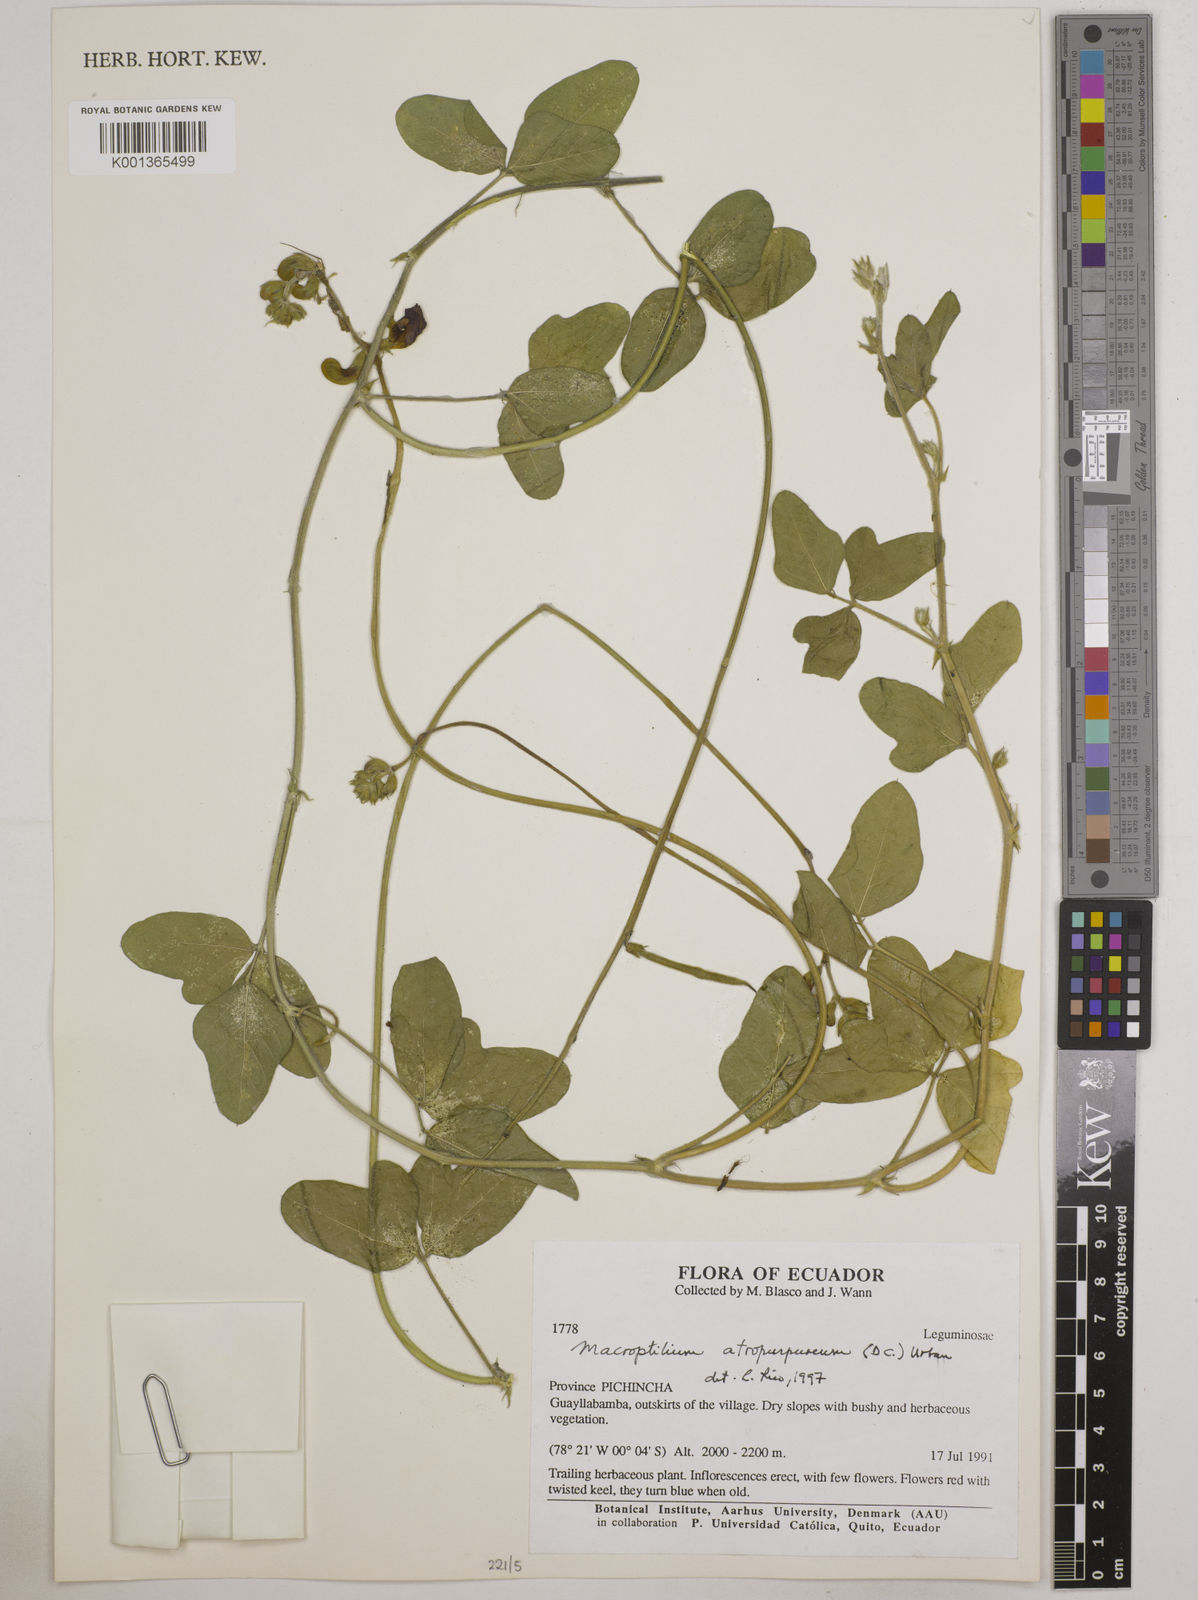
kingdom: Plantae
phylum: Tracheophyta
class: Magnoliopsida
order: Fabales
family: Fabaceae
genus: Macroptilium
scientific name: Macroptilium atropurpureum
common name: Purple bushbean
